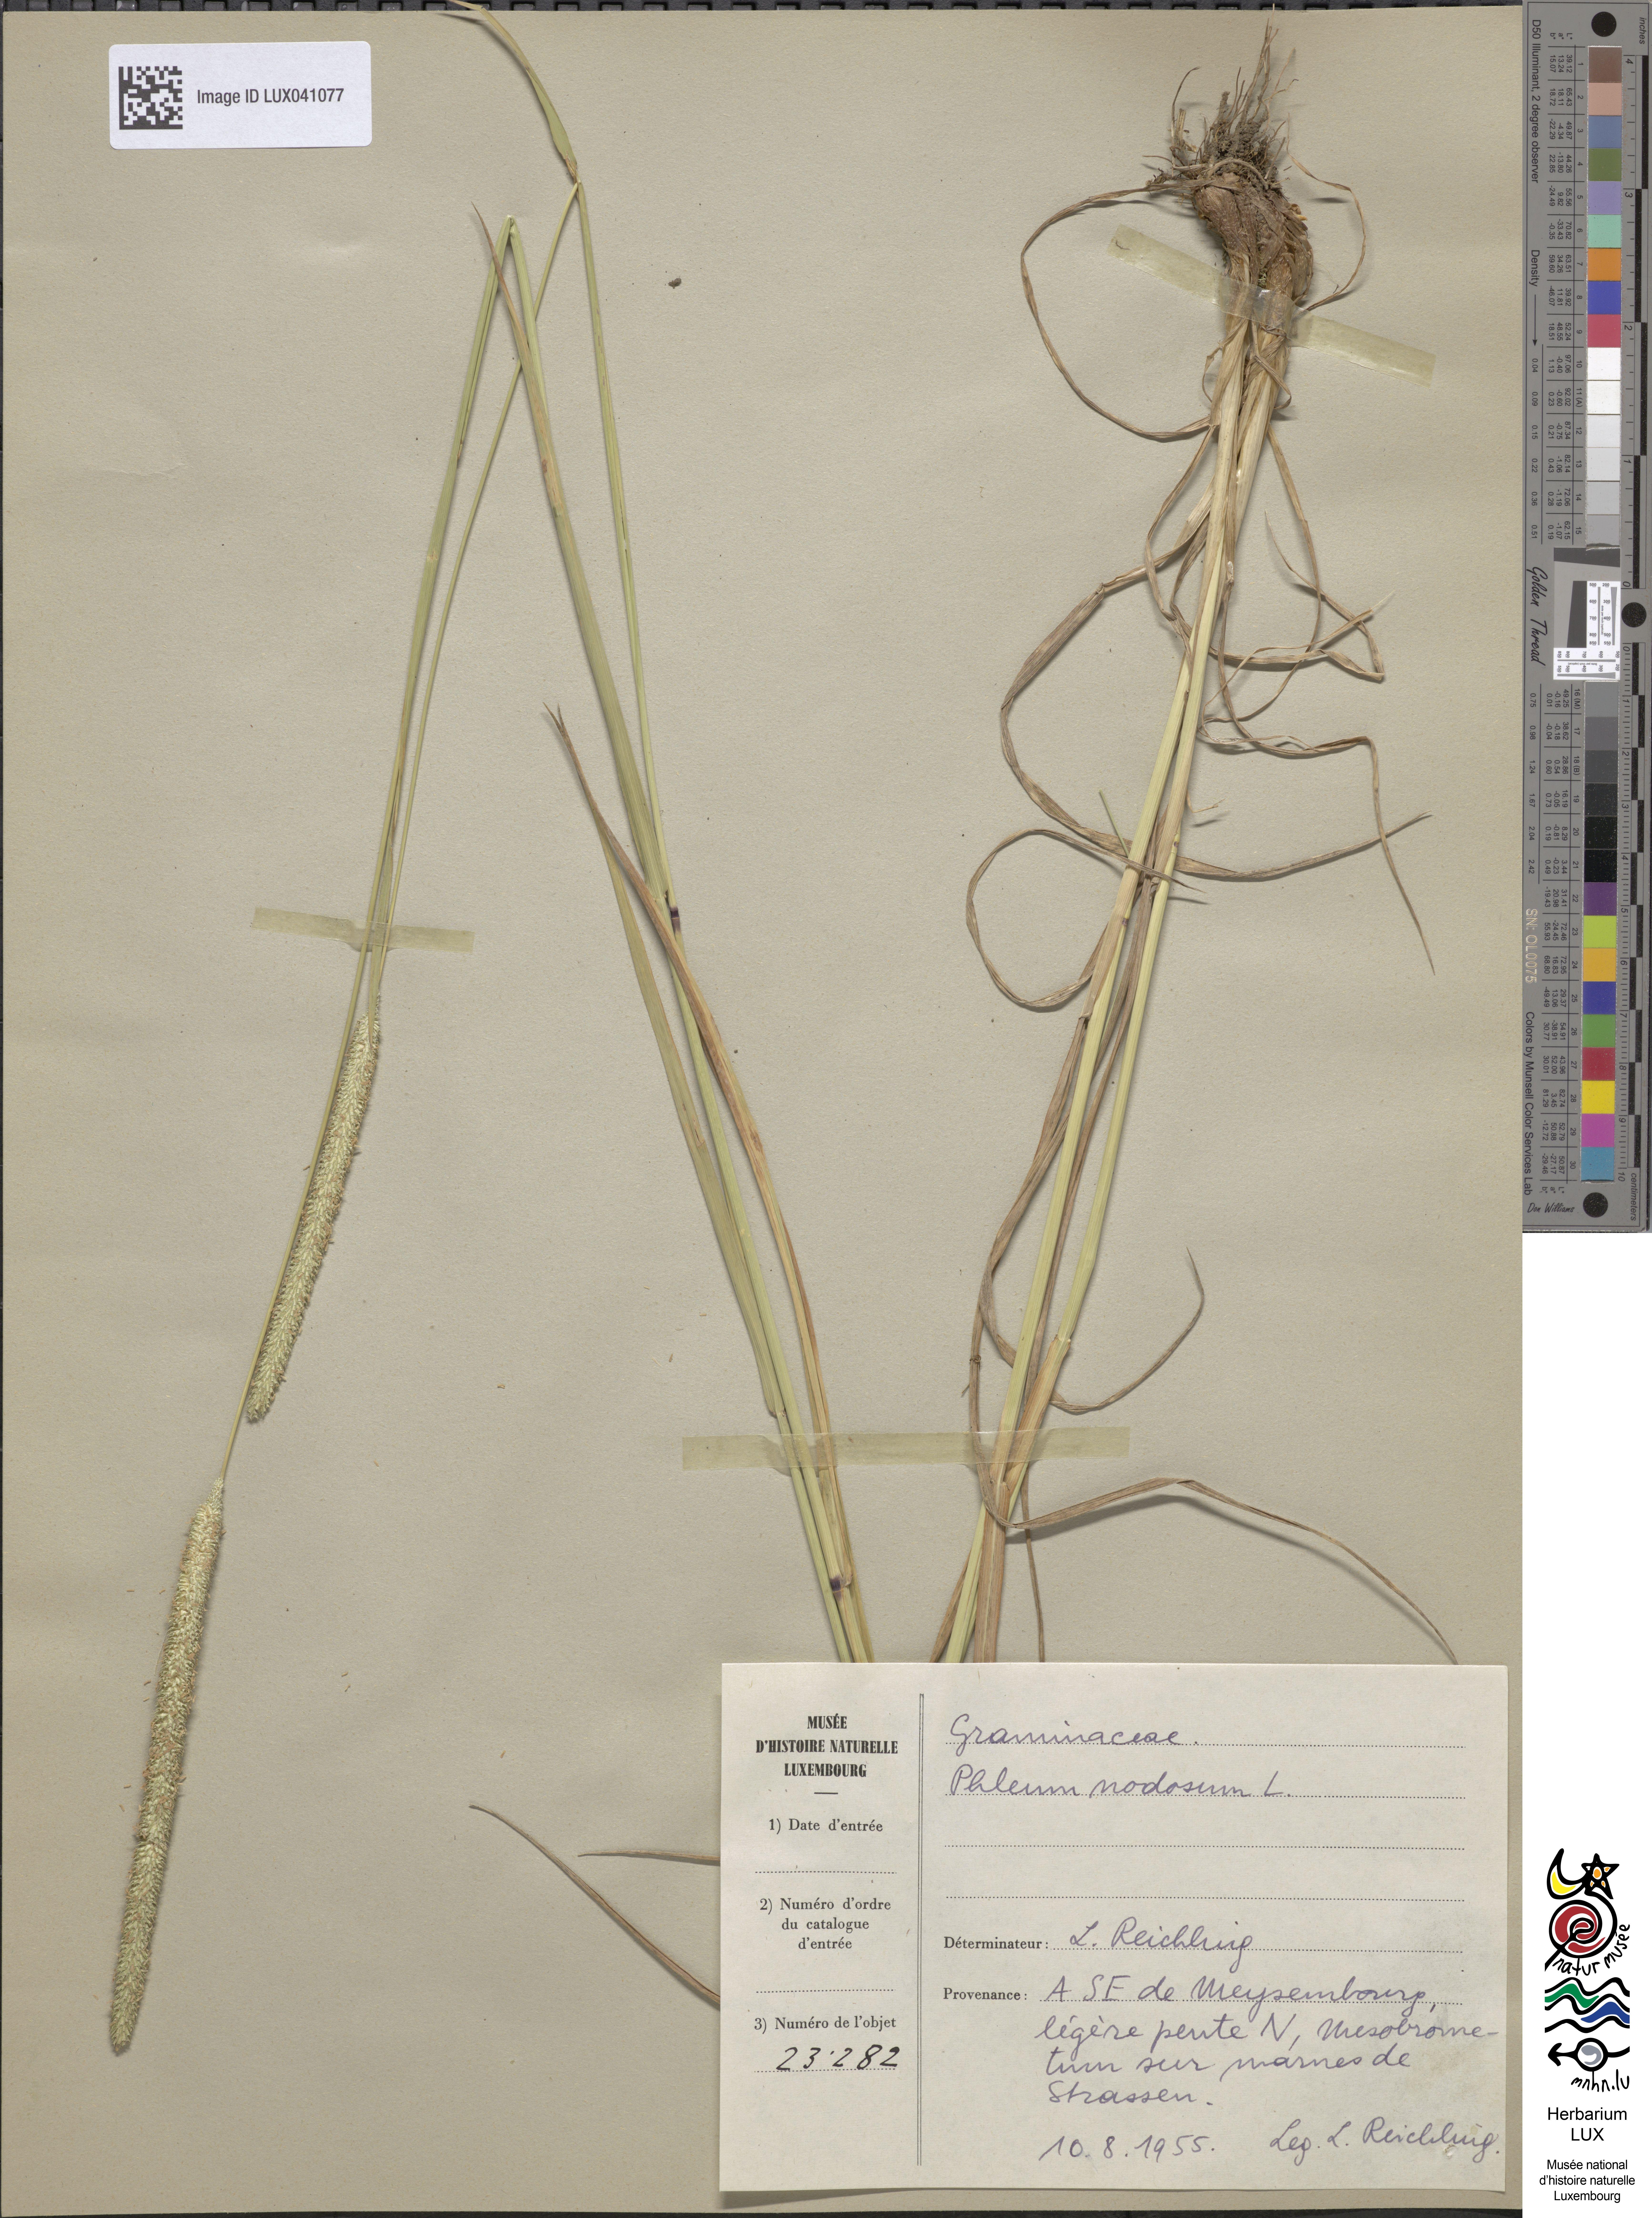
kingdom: Plantae
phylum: Tracheophyta
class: Liliopsida
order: Poales
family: Poaceae
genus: Phleum
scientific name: Phleum pratense
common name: Timothy grass
